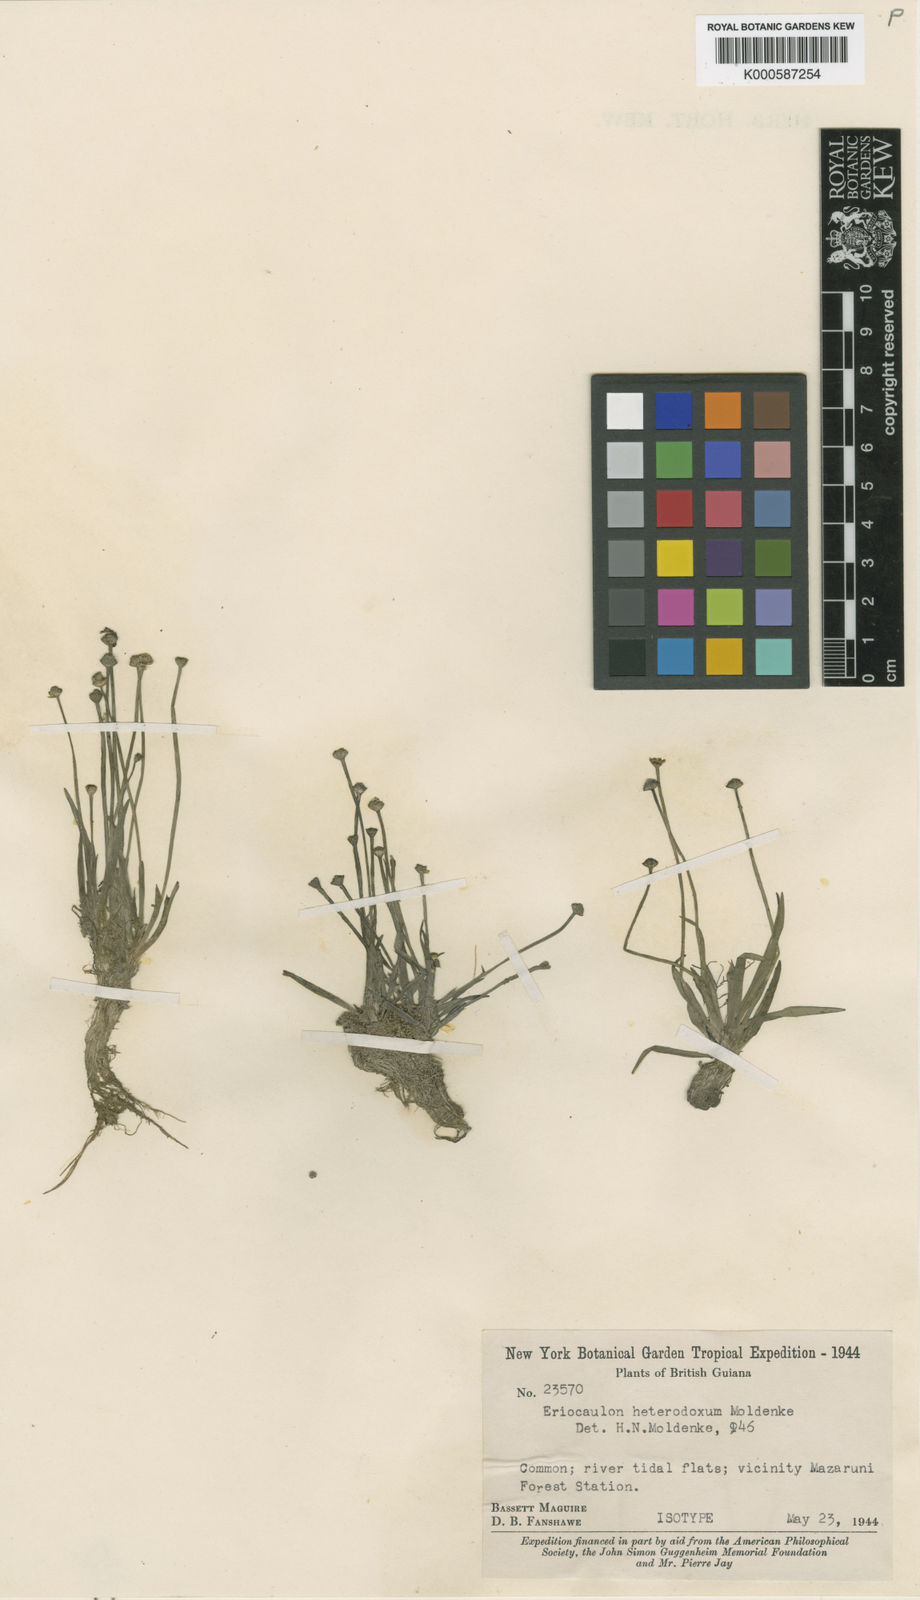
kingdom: Plantae
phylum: Tracheophyta
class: Liliopsida
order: Poales
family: Eriocaulaceae
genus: Eriocaulon
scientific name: Eriocaulon heterodoxum
